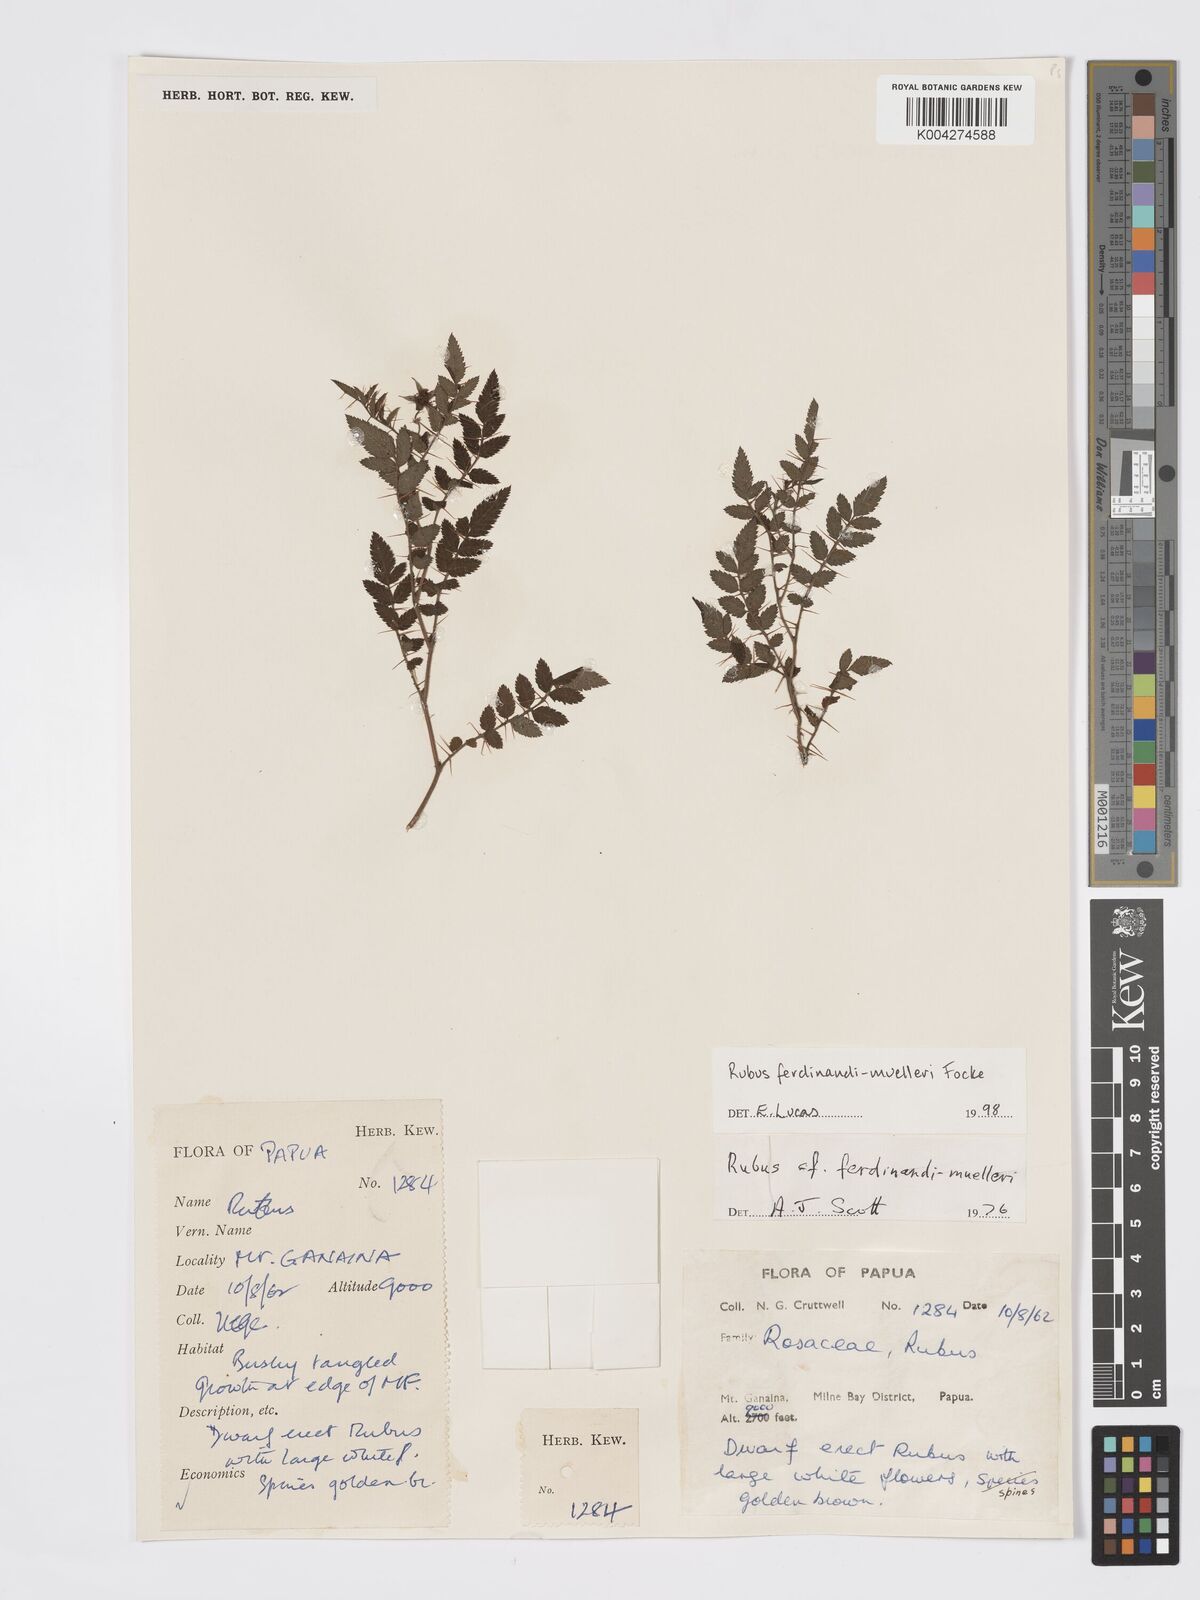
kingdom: Plantae
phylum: Tracheophyta
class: Magnoliopsida
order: Rosales
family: Rosaceae
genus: Rubus
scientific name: Rubus ferdinandimuelleri
